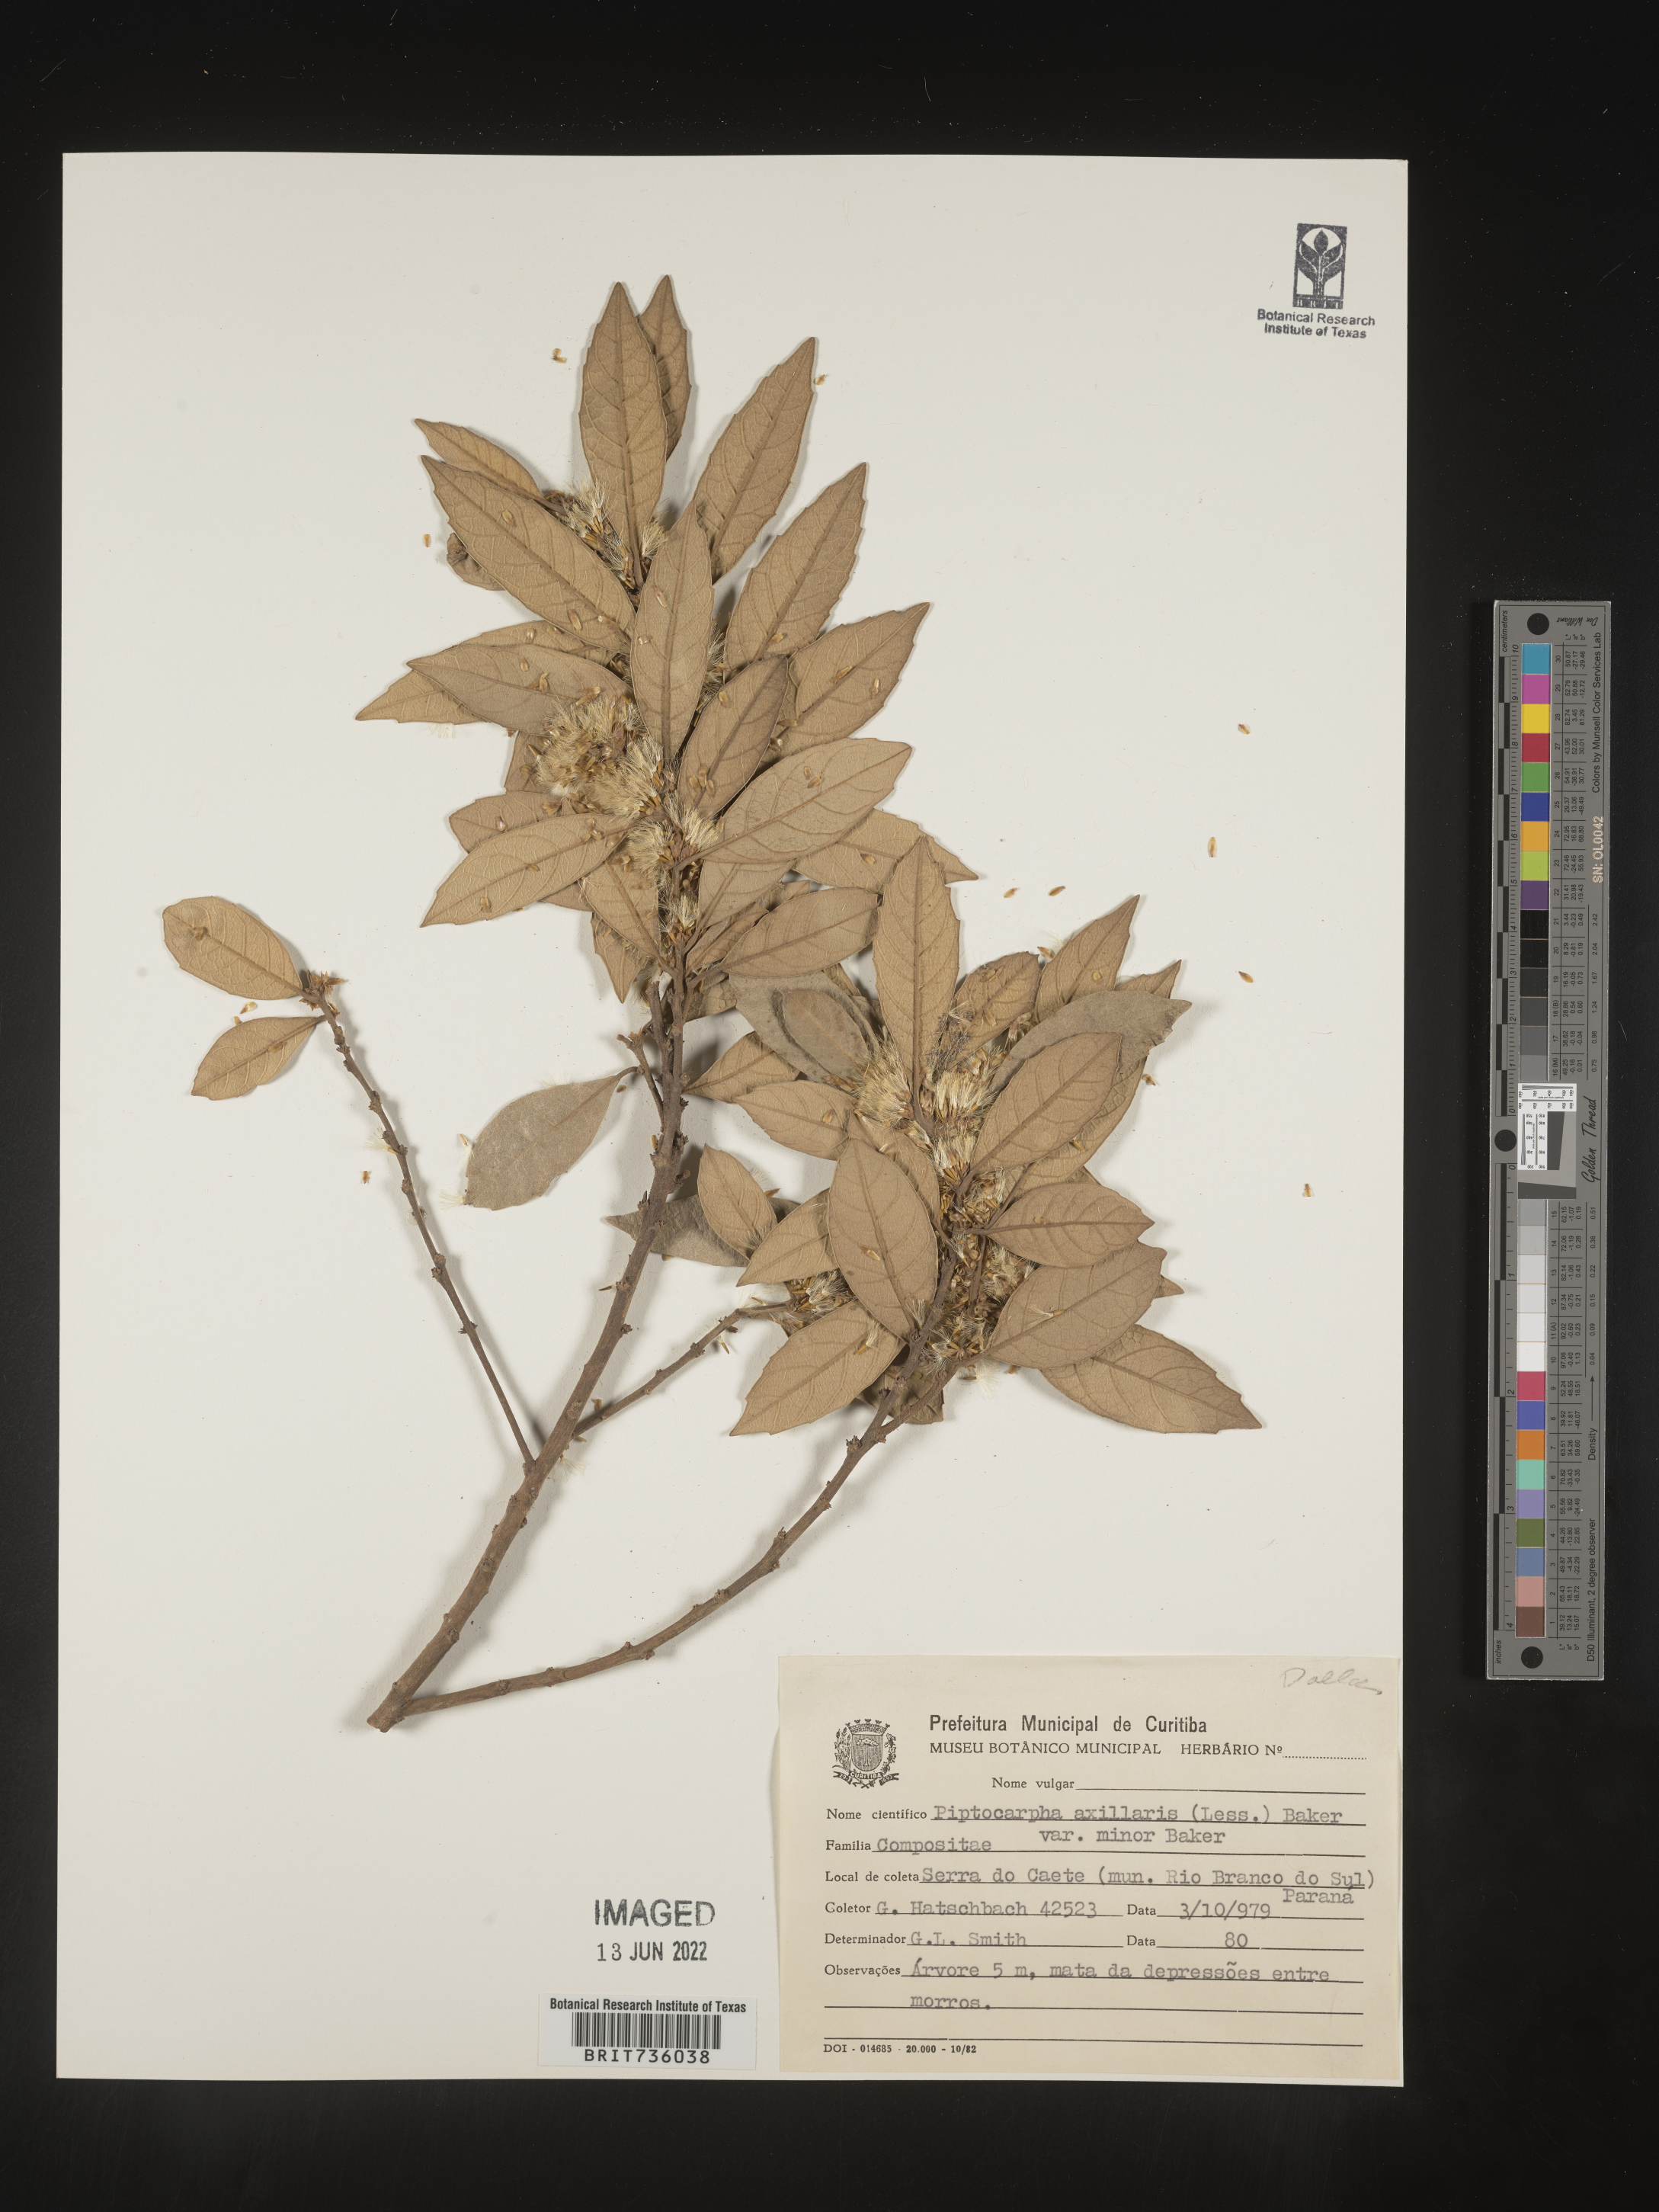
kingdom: Plantae
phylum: Tracheophyta
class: Magnoliopsida
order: Asterales
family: Asteraceae
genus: Piptocarpha
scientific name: Piptocarpha
